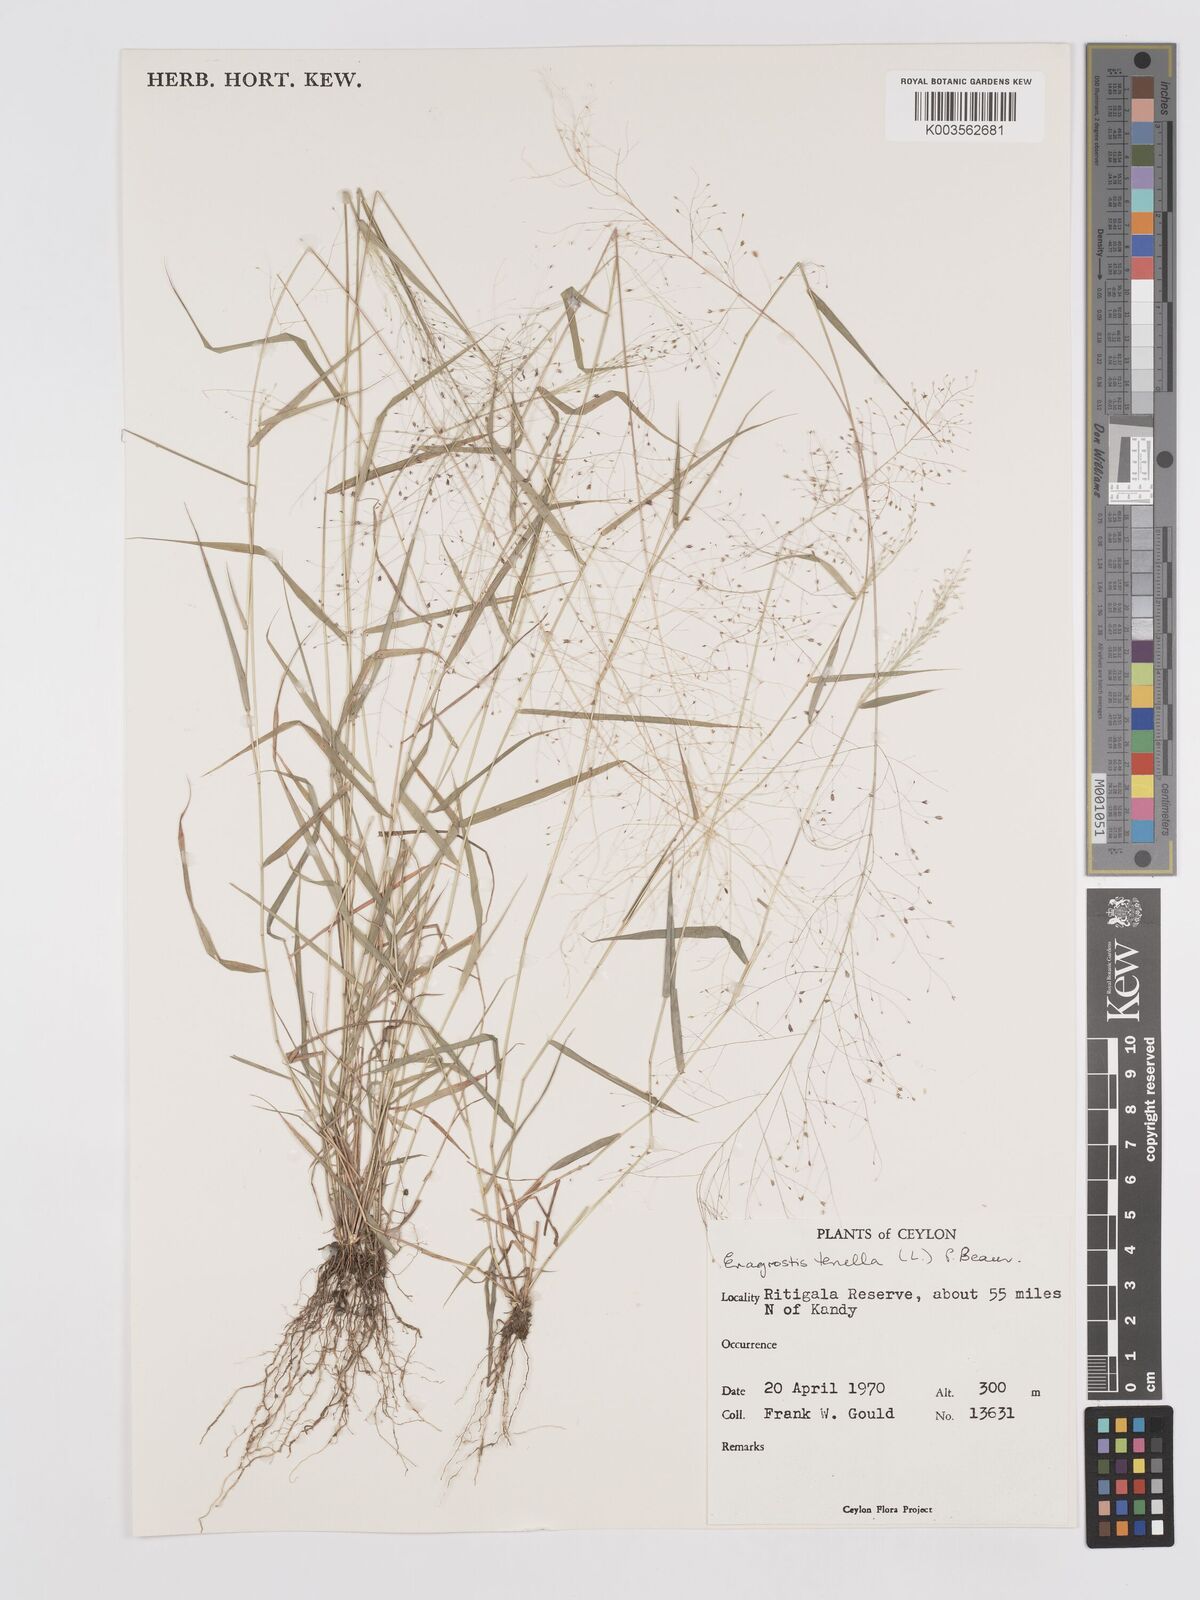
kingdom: Plantae
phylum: Tracheophyta
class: Liliopsida
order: Poales
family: Poaceae
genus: Eragrostis
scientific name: Eragrostis tenella
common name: Japanese lovegrass
